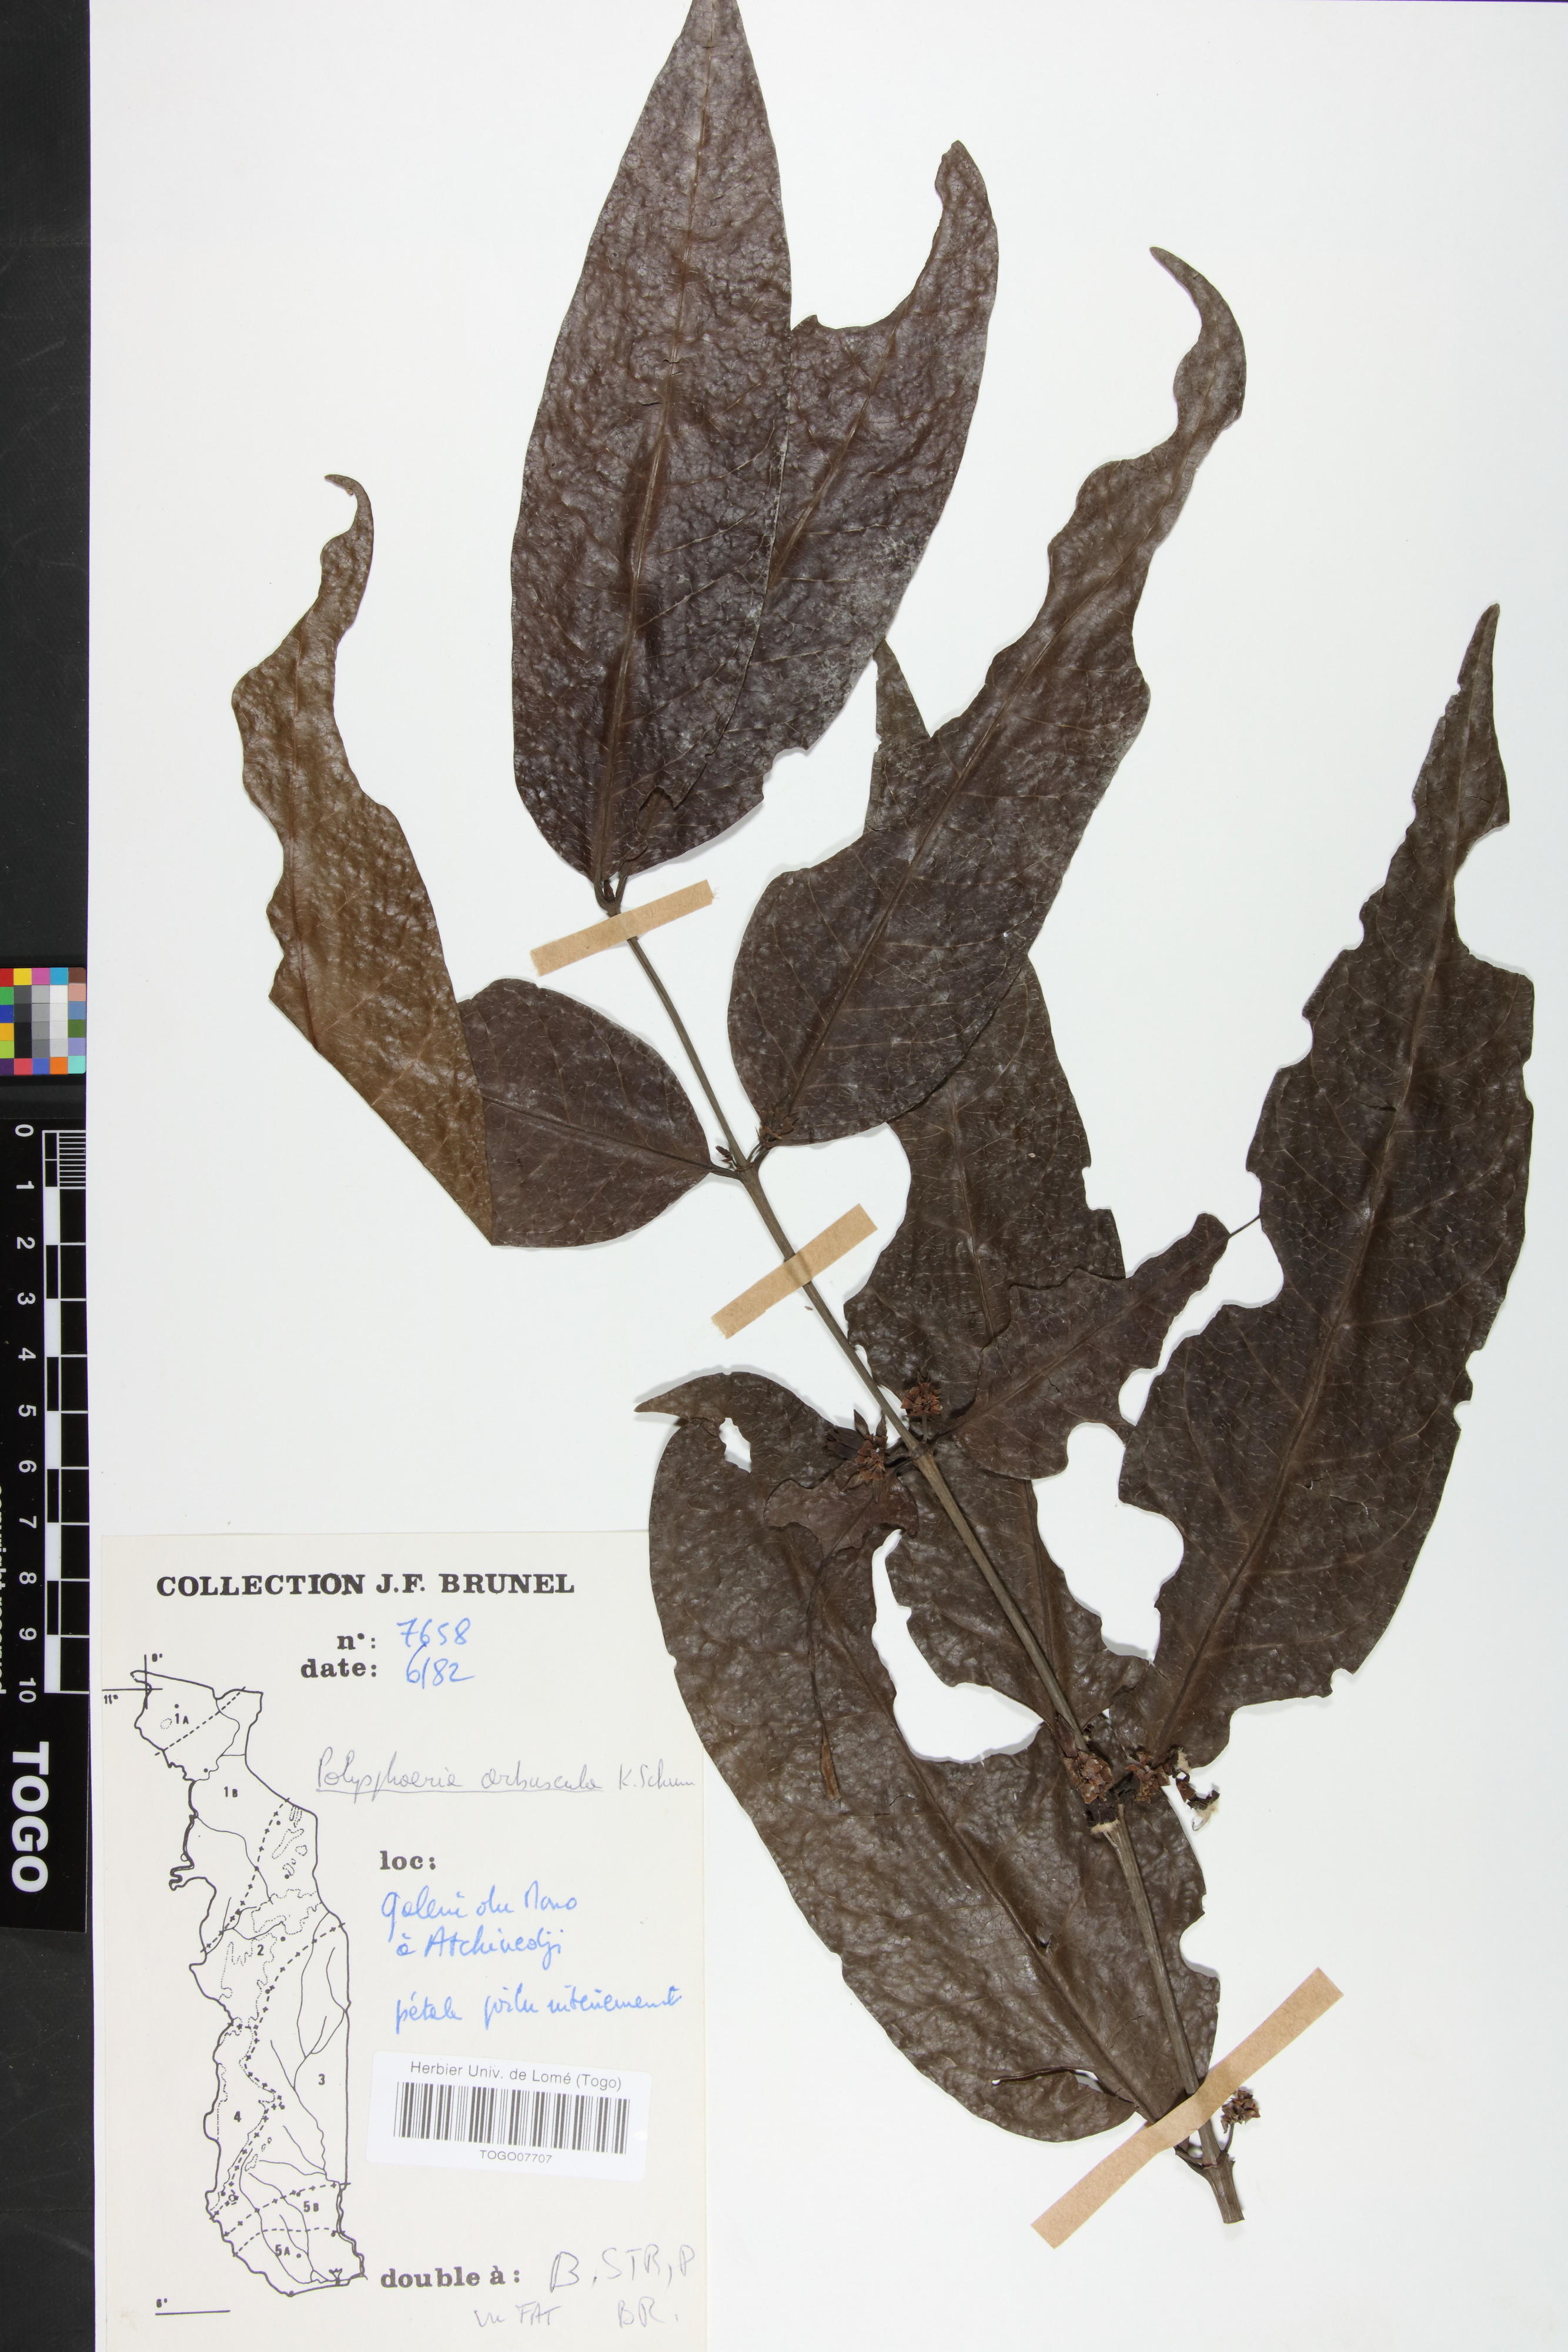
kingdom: Plantae
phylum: Tracheophyta
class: Magnoliopsida
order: Gentianales
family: Rubiaceae
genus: Polysphaeria
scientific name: Polysphaeria arbuscula
